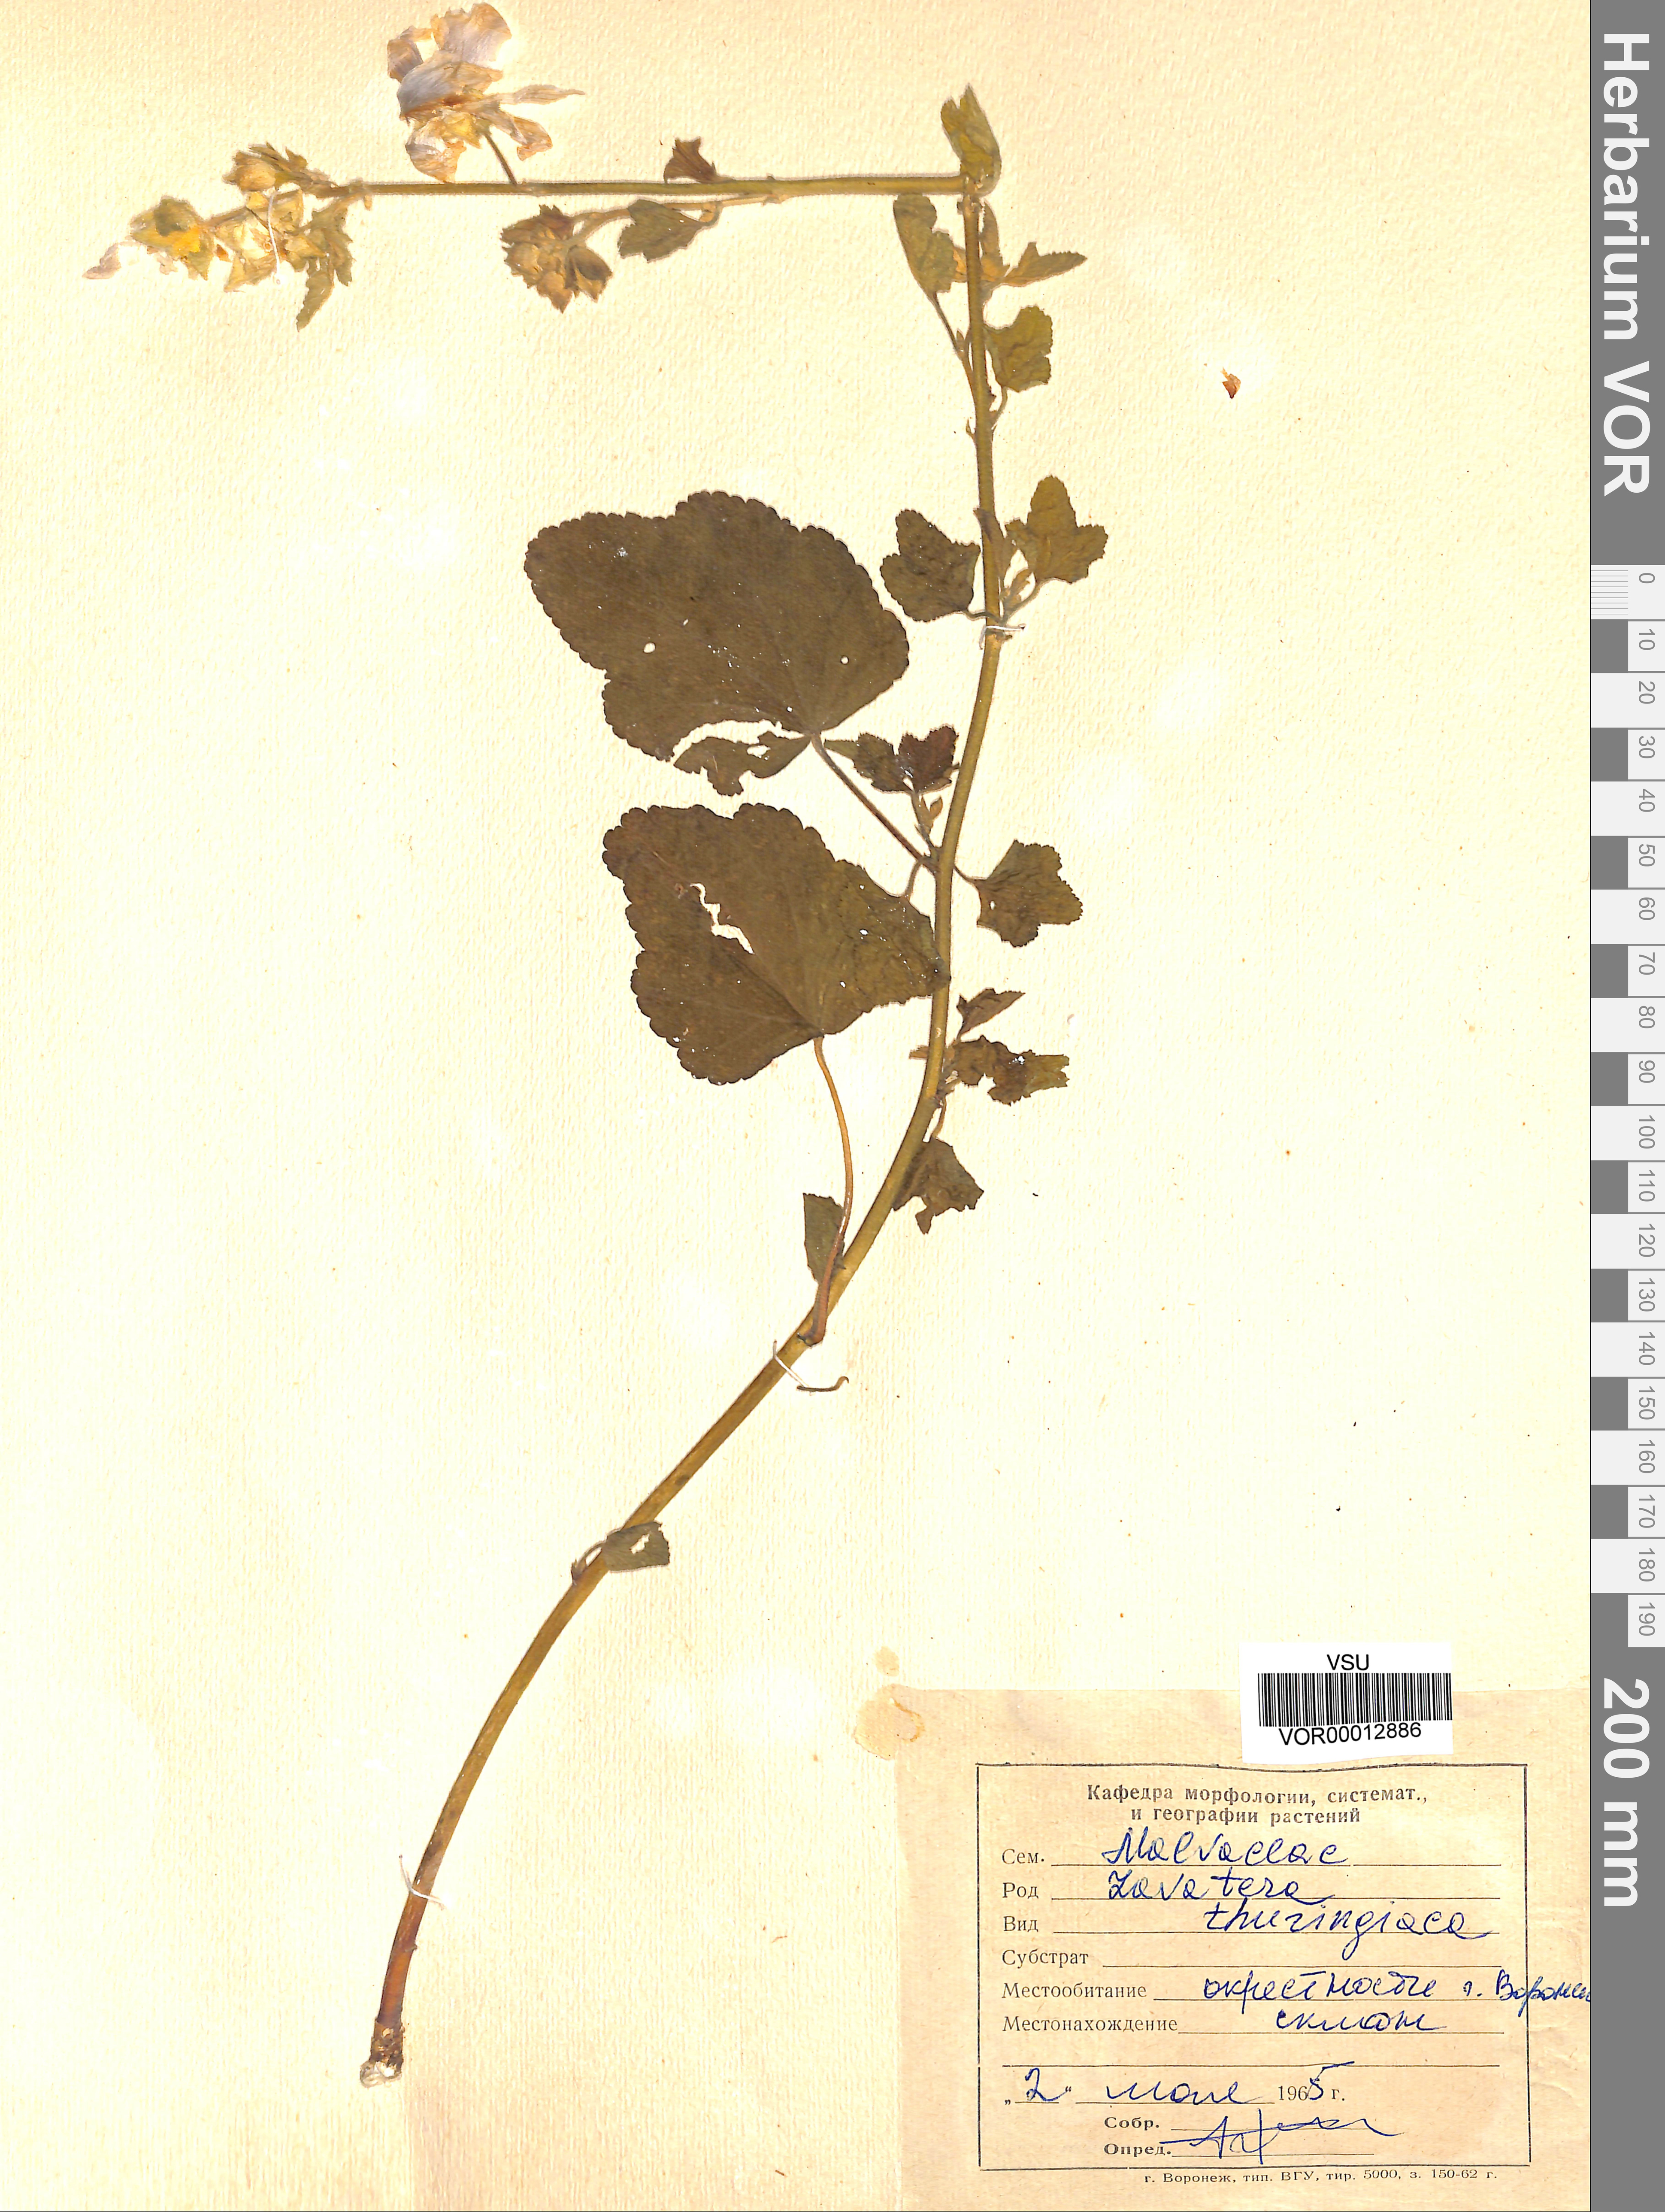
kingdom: Plantae
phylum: Tracheophyta
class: Magnoliopsida
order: Malvales
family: Malvaceae
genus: Malva
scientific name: Malva thuringiaca
